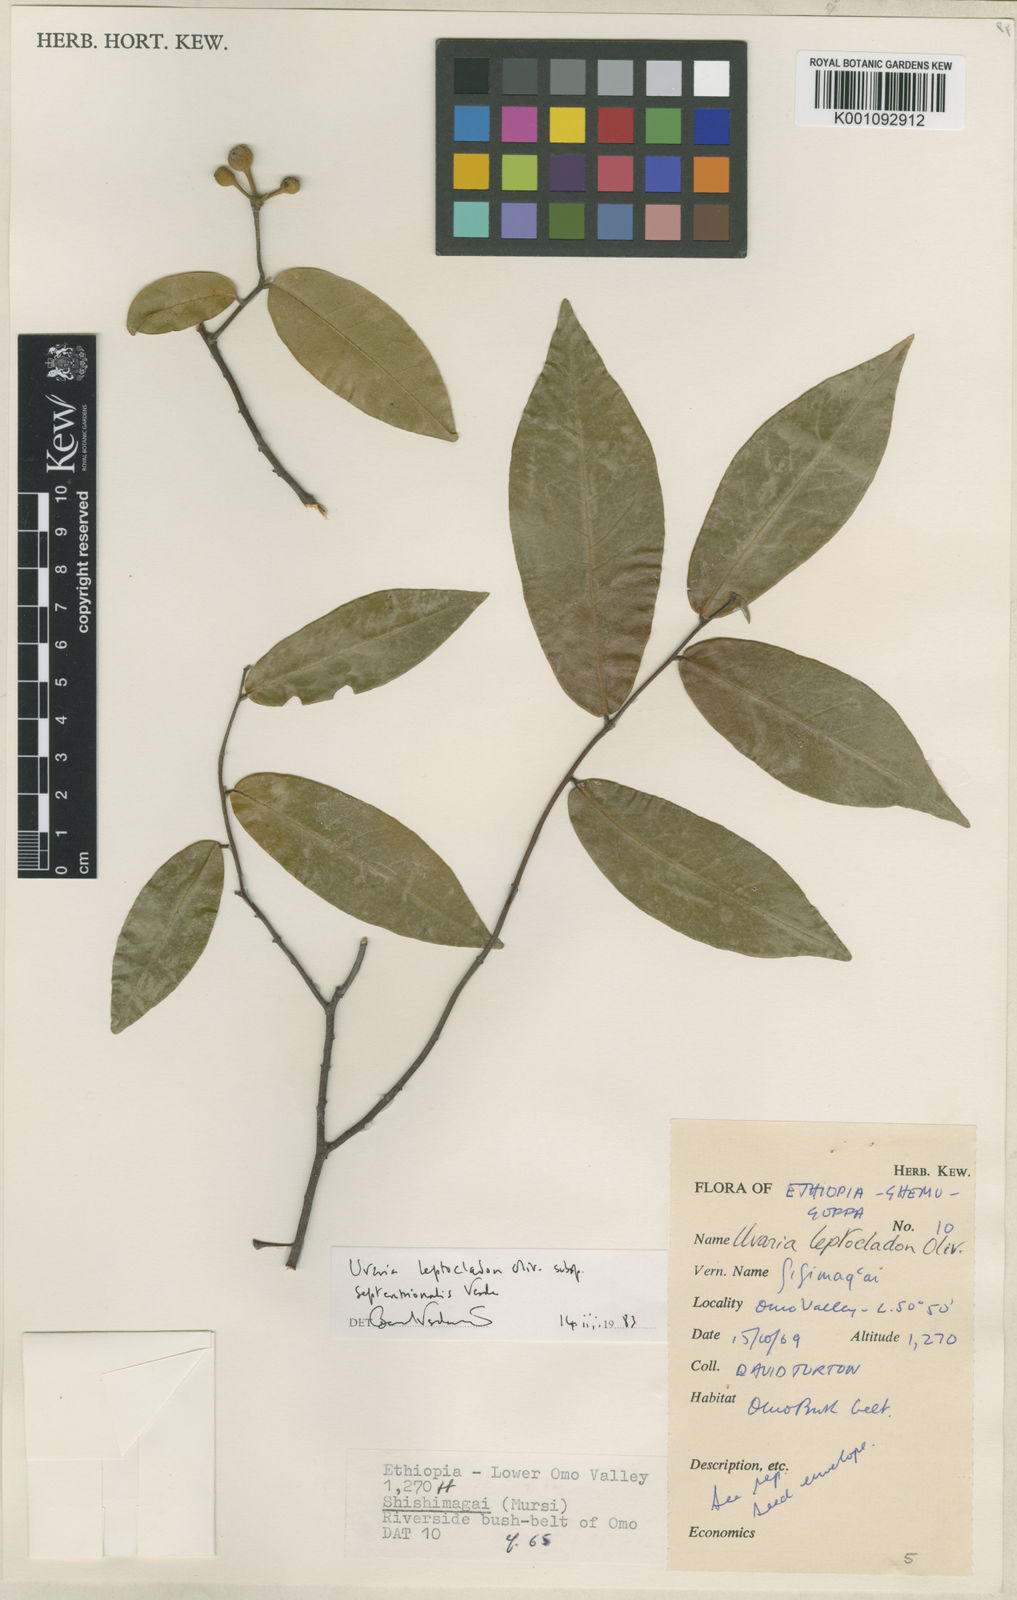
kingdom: Plantae
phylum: Tracheophyta
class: Magnoliopsida
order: Magnoliales
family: Annonaceae
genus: Uvaria
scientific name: Uvaria leptocladon
